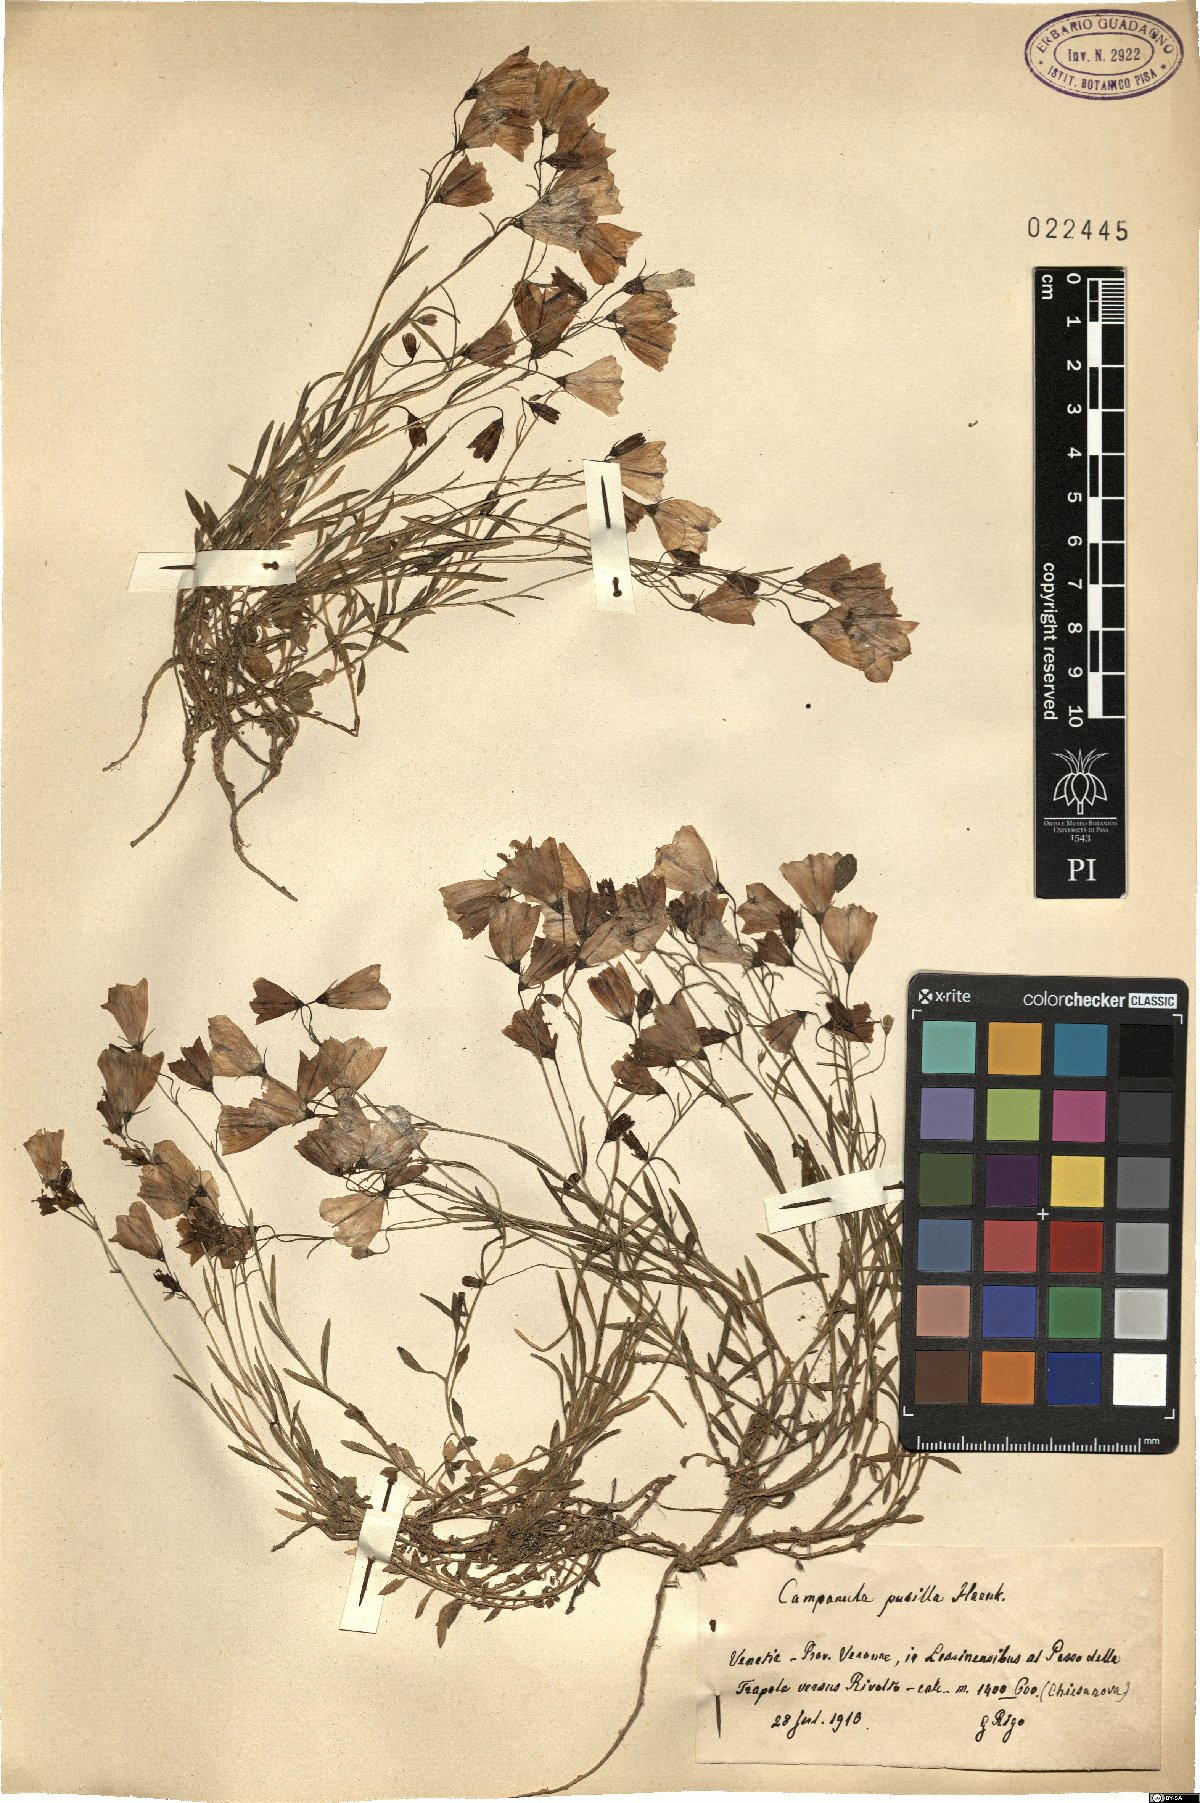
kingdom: Plantae
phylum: Tracheophyta
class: Magnoliopsida
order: Asterales
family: Campanulaceae
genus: Campanula
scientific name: Campanula cochleariifolia
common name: Fairies'-thimbles
